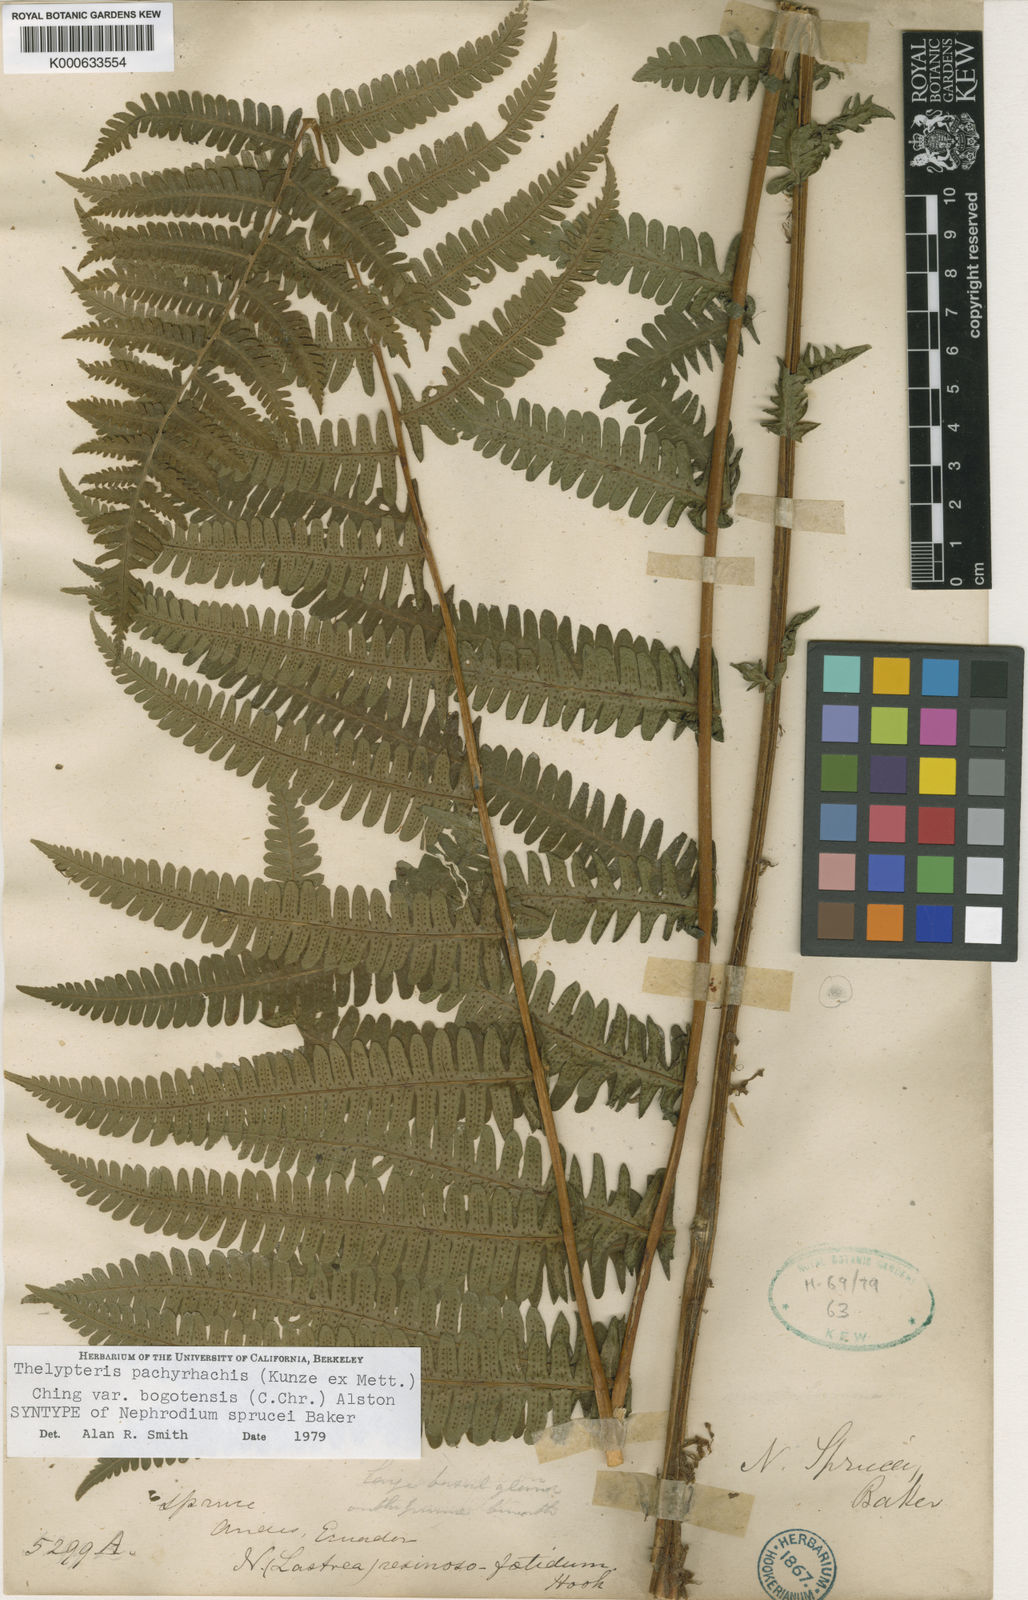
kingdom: Plantae
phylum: Tracheophyta
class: Polypodiopsida
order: Polypodiales
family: Thelypteridaceae
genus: Amauropelta
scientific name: Amauropelta pachyrhachis
